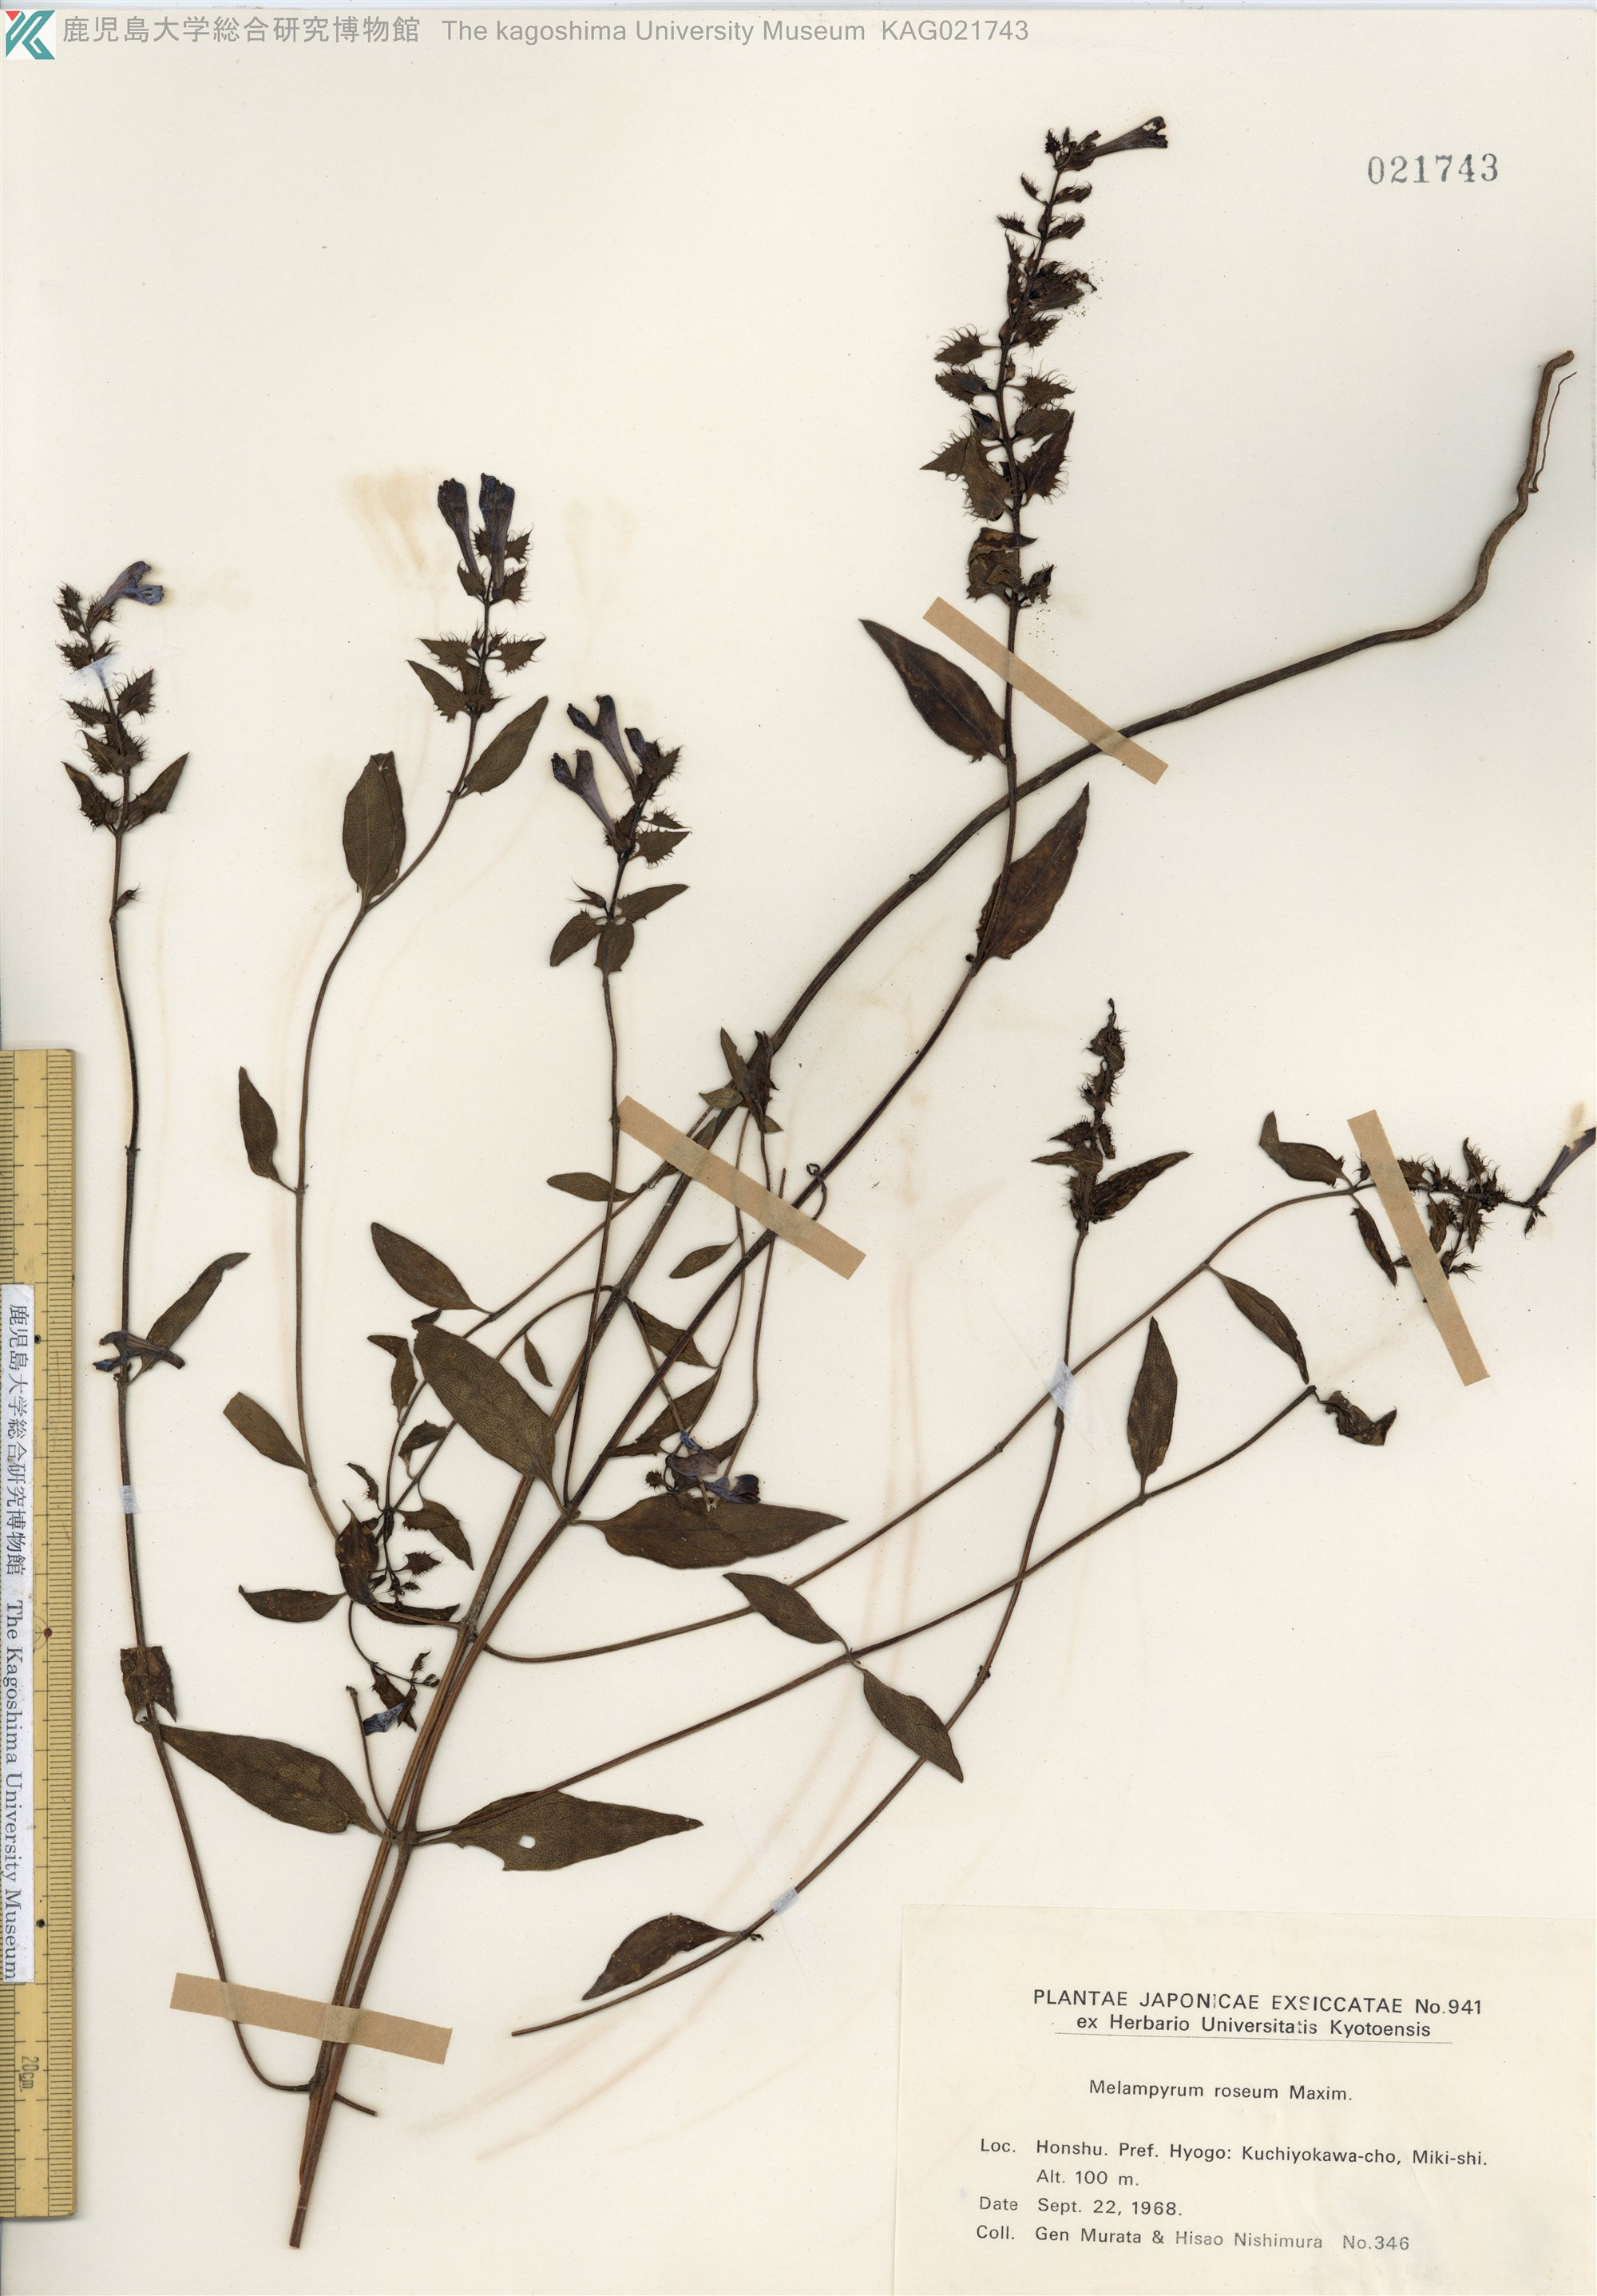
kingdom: Plantae
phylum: Tracheophyta
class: Magnoliopsida
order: Lamiales
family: Orobanchaceae
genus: Melampyrum
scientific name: Melampyrum roseum
